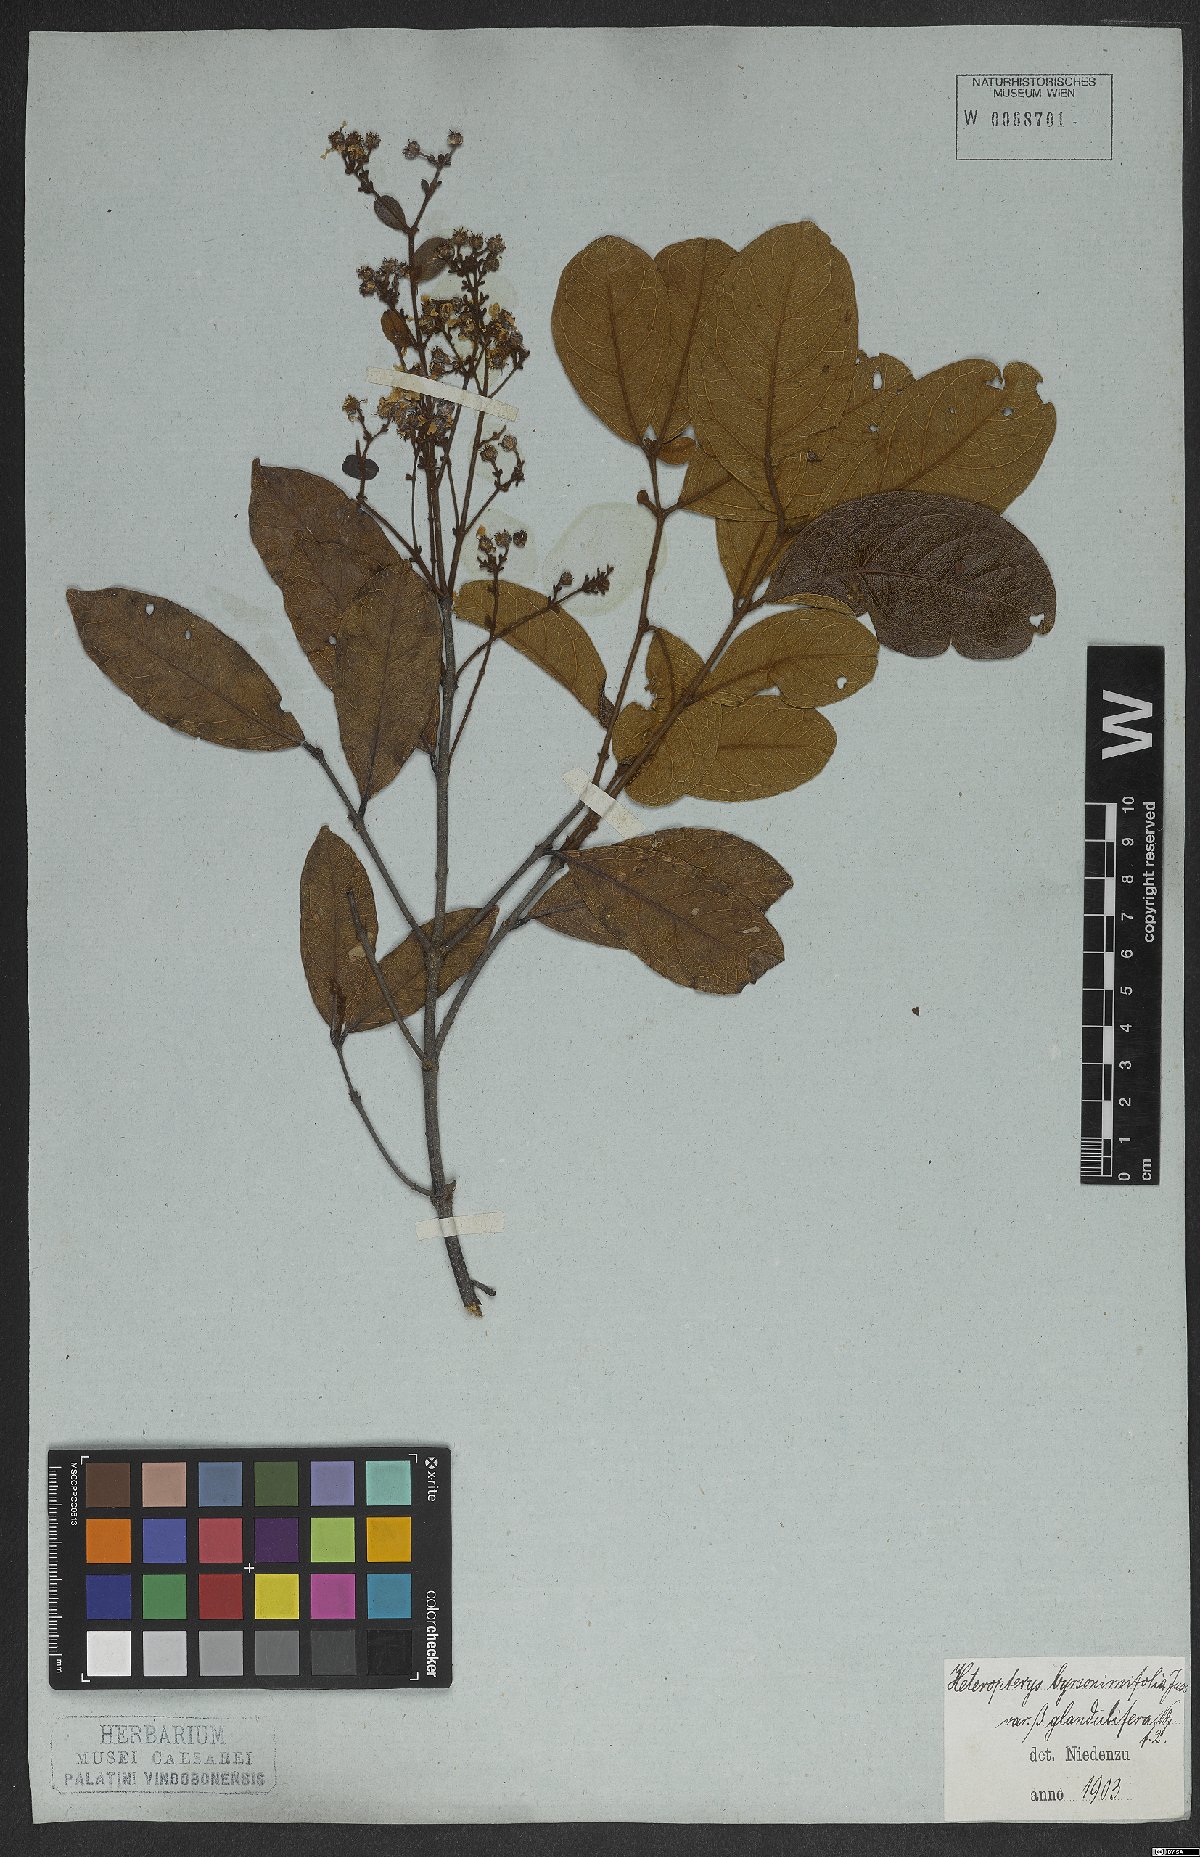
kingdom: Plantae
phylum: Tracheophyta
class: Magnoliopsida
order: Malpighiales
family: Malpighiaceae
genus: Heteropterys
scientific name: Heteropterys byrsonimifolia
